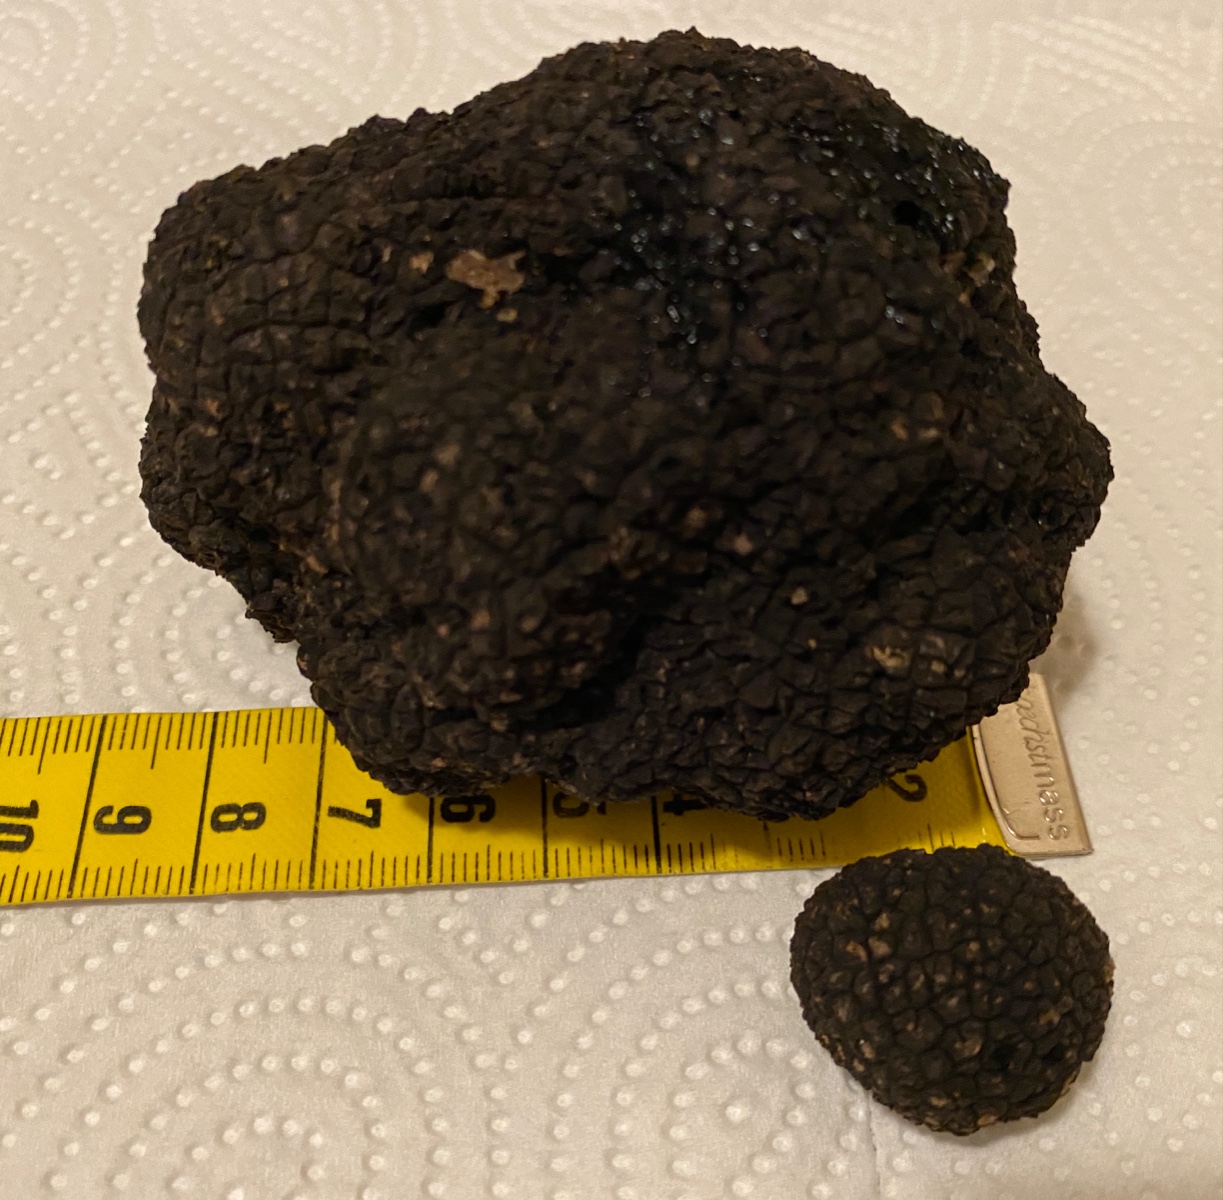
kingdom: Fungi
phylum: Ascomycota
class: Pezizomycetes
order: Pezizales
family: Tuberaceae
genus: Tuber
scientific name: Tuber aestivum
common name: sommer-trøffel
